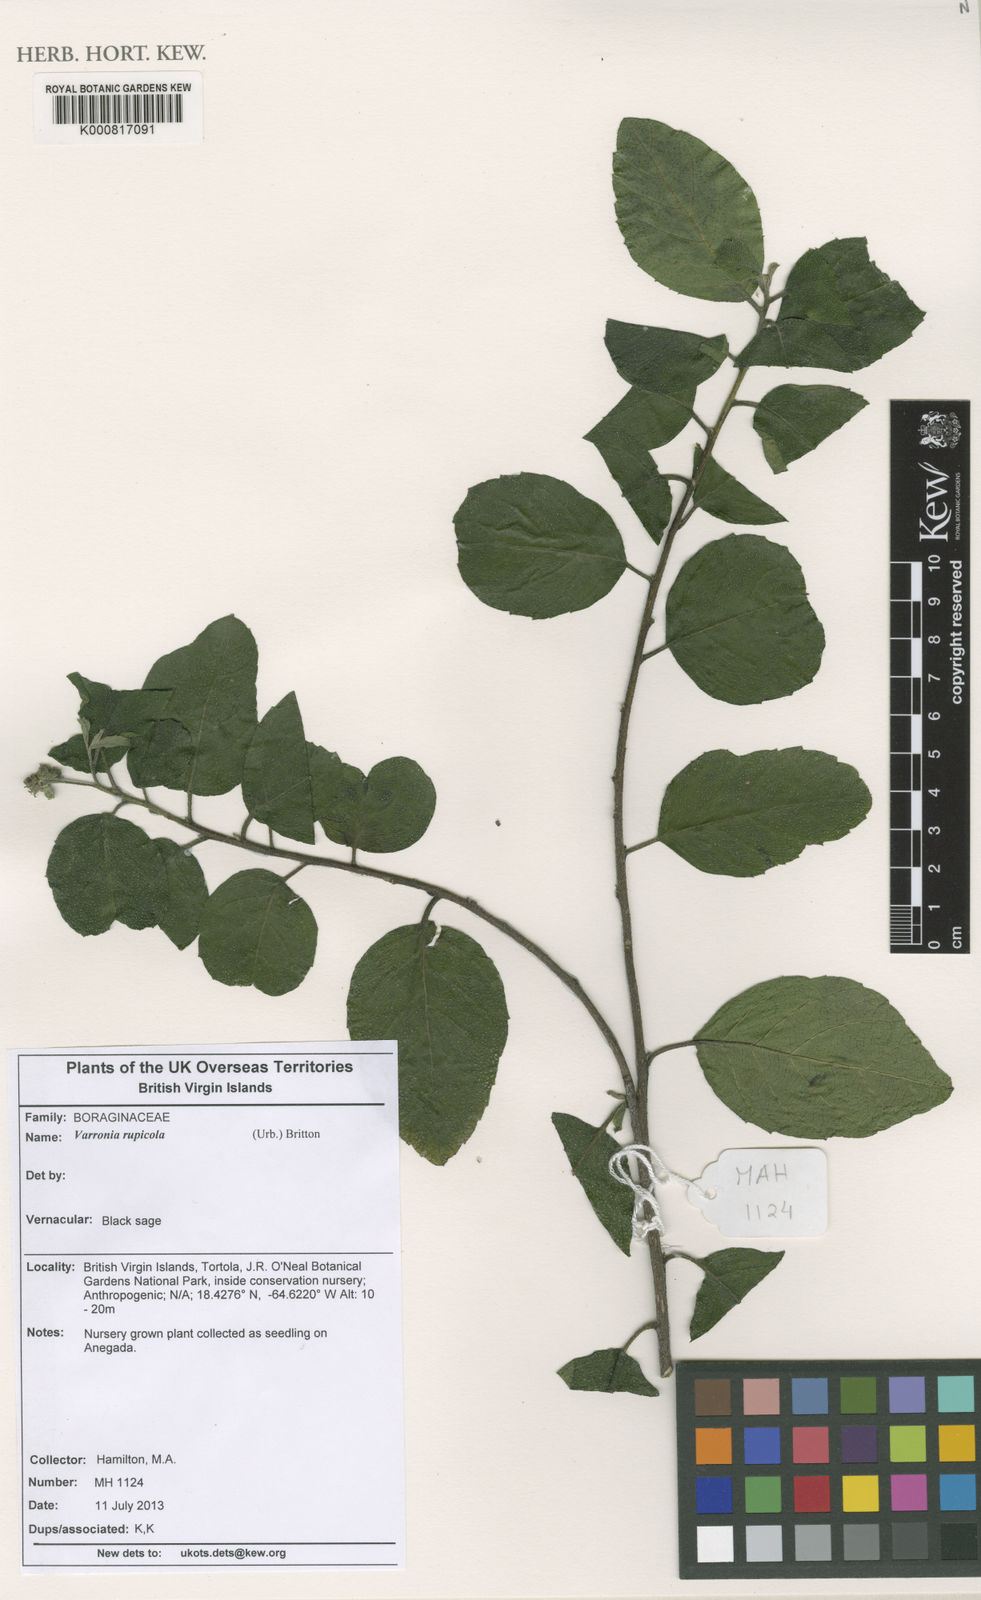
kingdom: Plantae
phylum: Tracheophyta
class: Magnoliopsida
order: Boraginales
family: Cordiaceae
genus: Varronia
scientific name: Varronia rupicola
